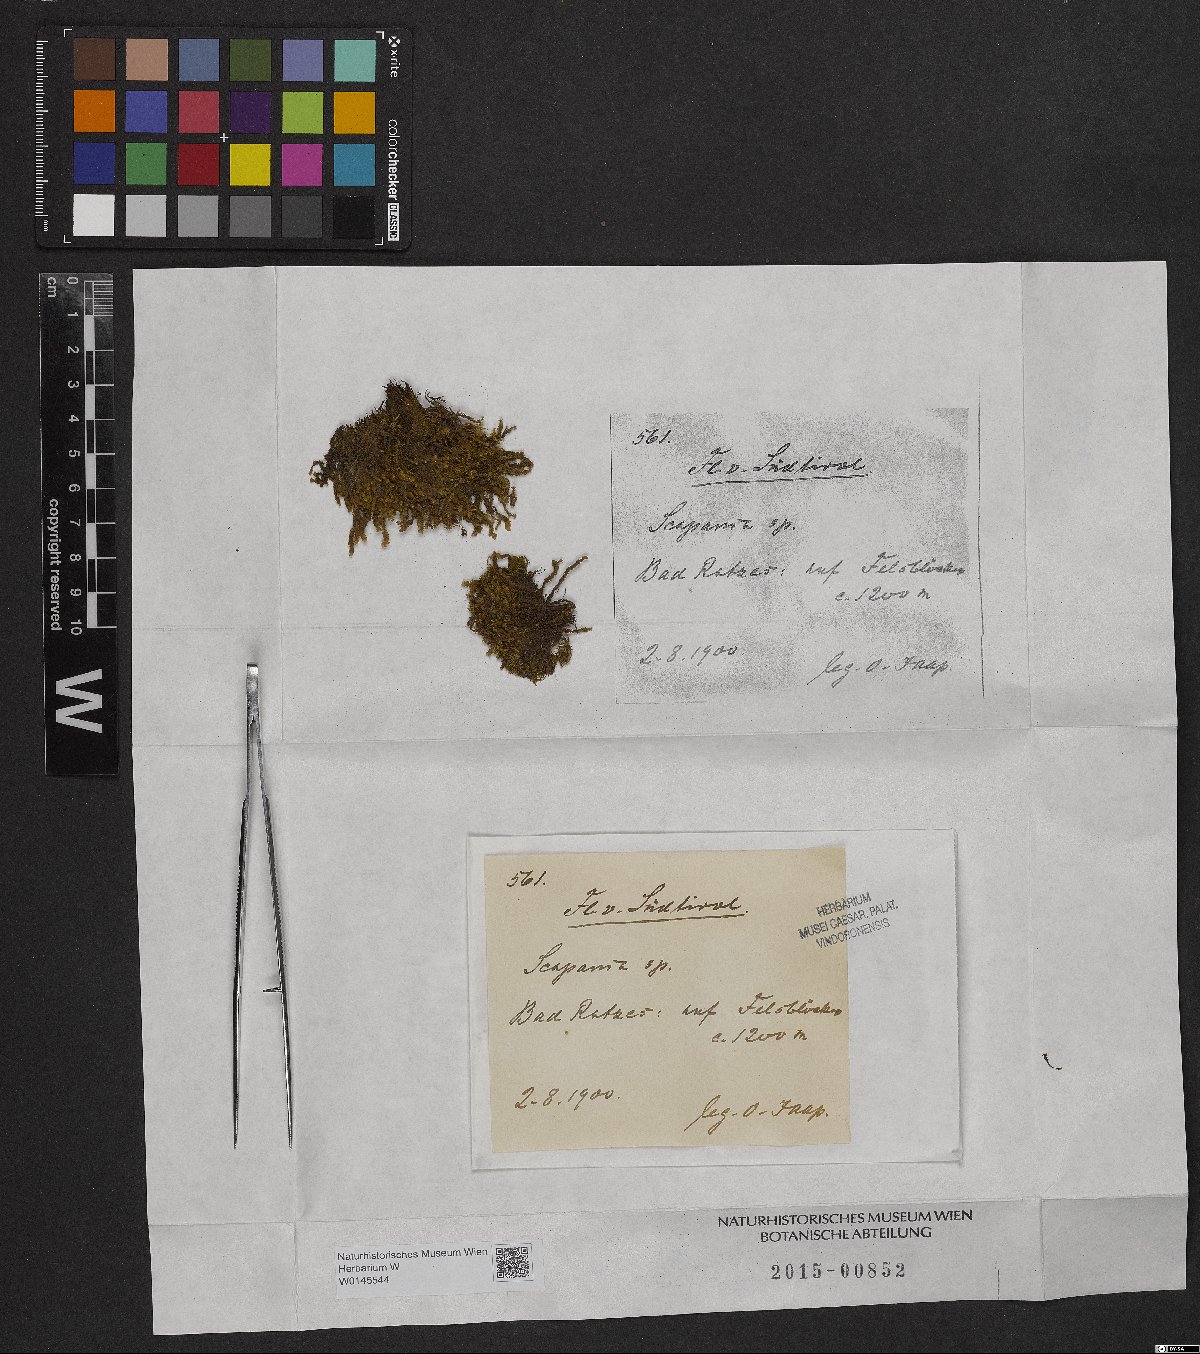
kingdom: Plantae
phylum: Marchantiophyta
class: Jungermanniopsida
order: Jungermanniales
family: Scapaniaceae
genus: Scapania
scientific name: Scapania
